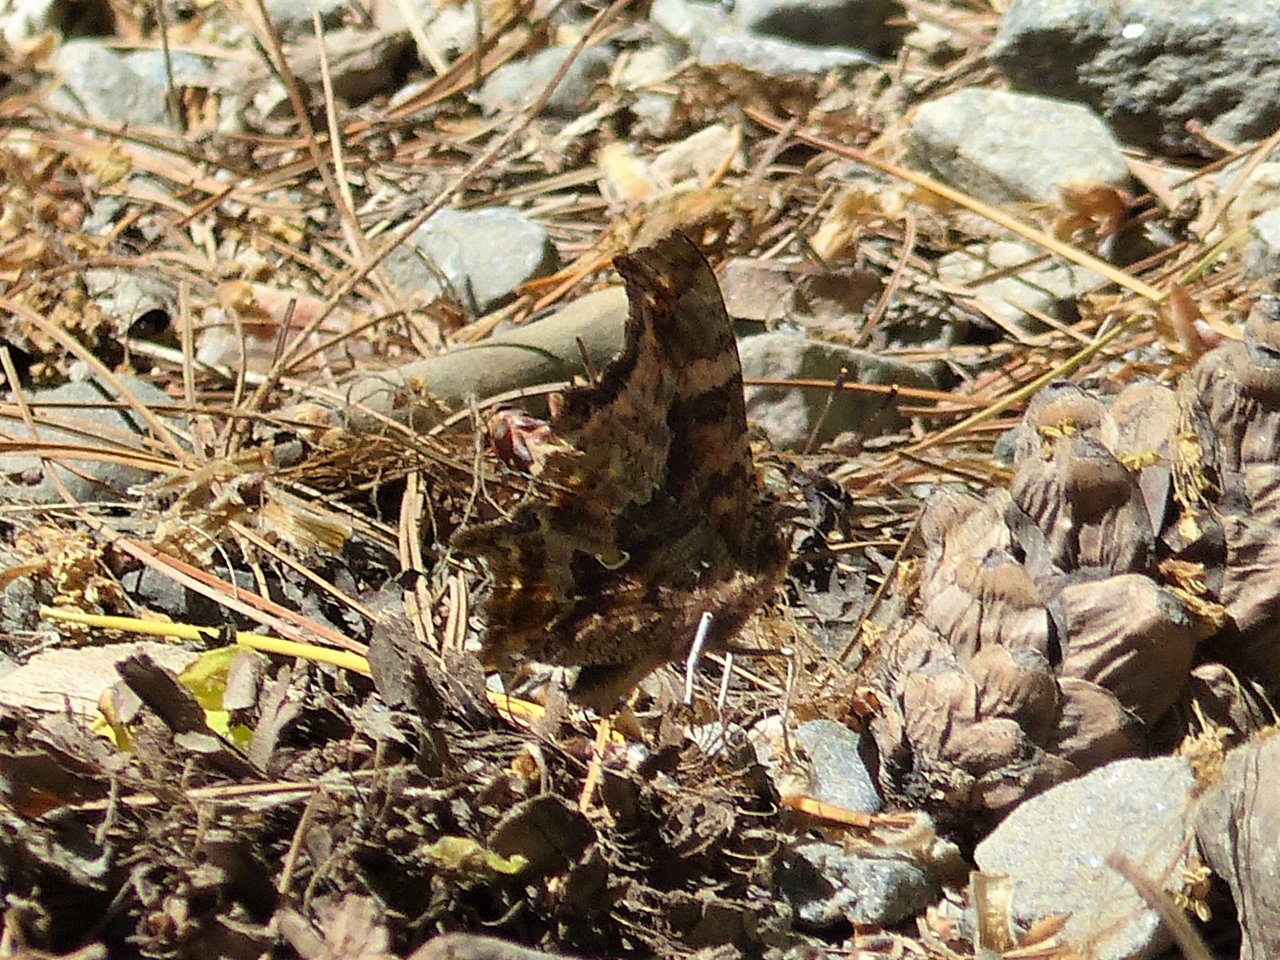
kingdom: Animalia
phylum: Arthropoda
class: Insecta
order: Lepidoptera
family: Nymphalidae
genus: Polygonia
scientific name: Polygonia comma
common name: Eastern Comma
